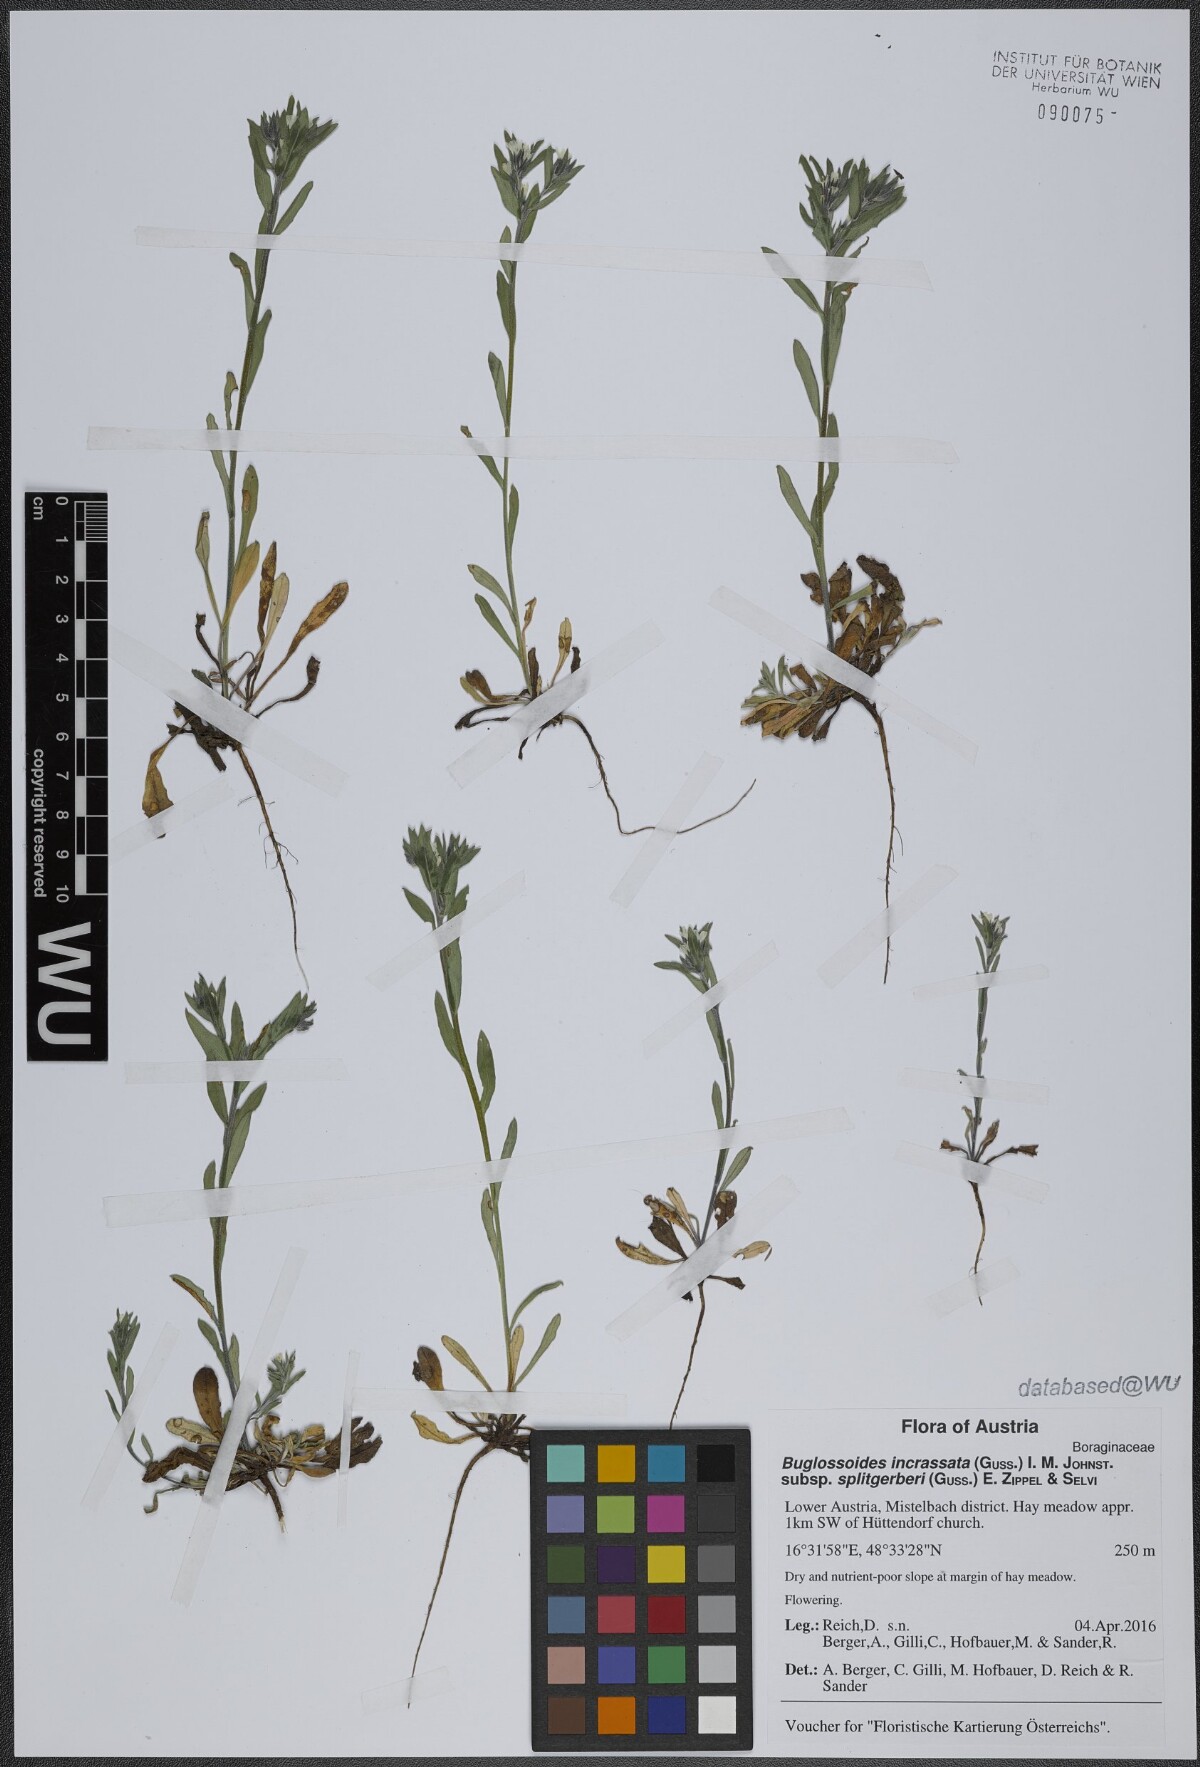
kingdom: Plantae
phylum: Tracheophyta
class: Magnoliopsida
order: Boraginales
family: Boraginaceae
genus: Buglossoides
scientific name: Buglossoides incrassata
